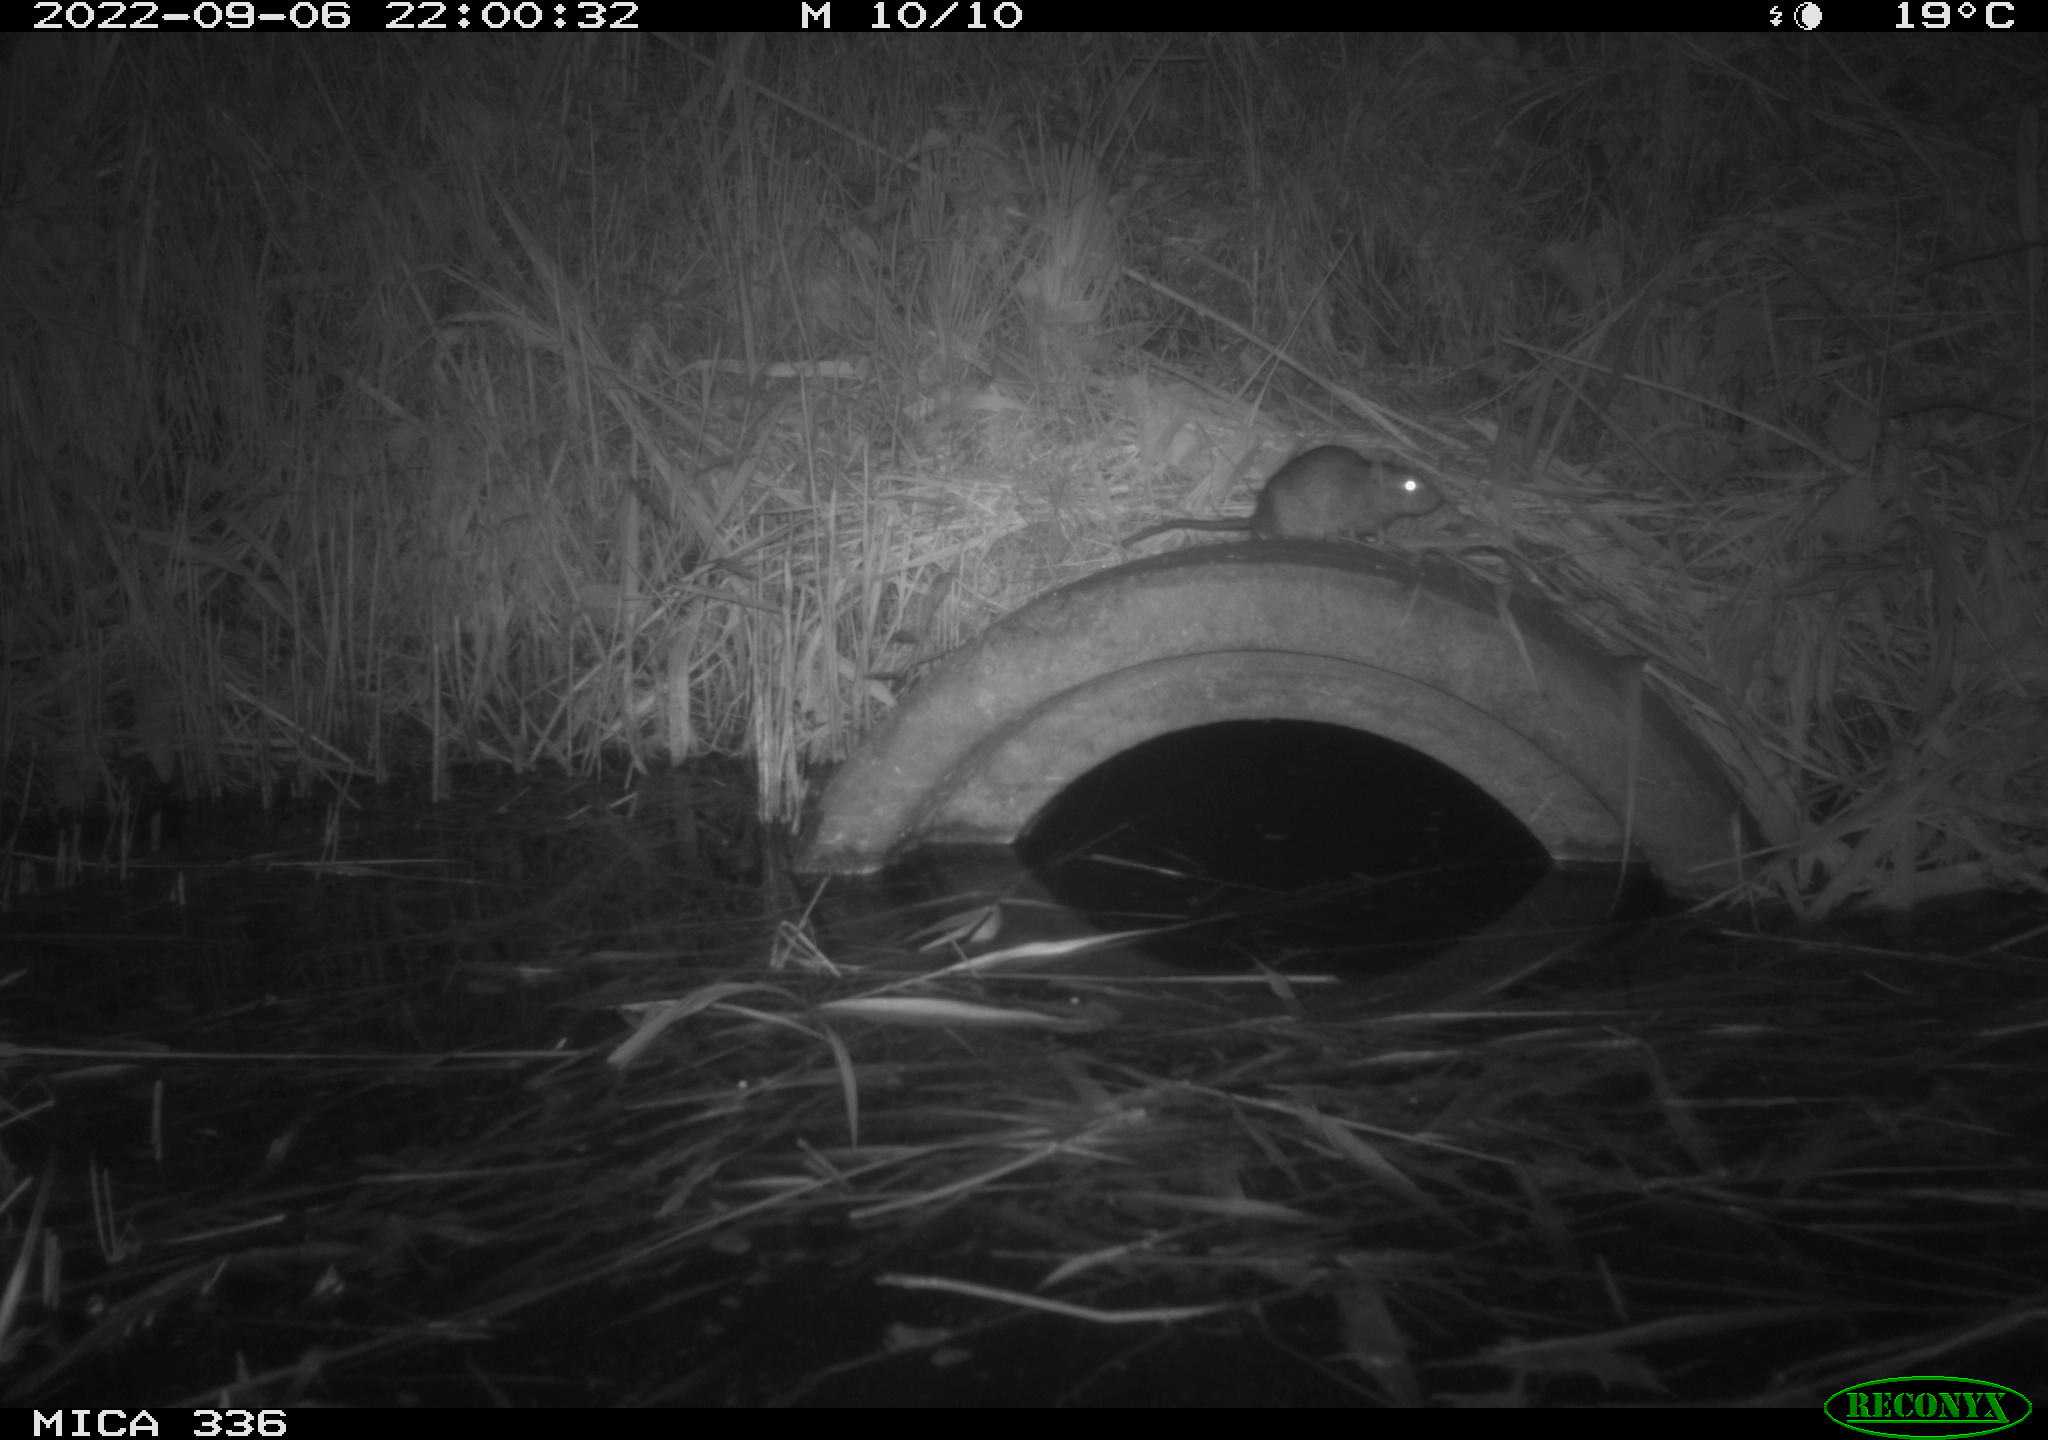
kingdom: Animalia
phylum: Chordata
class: Mammalia
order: Rodentia
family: Muridae
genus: Rattus
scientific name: Rattus norvegicus
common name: Brown rat
